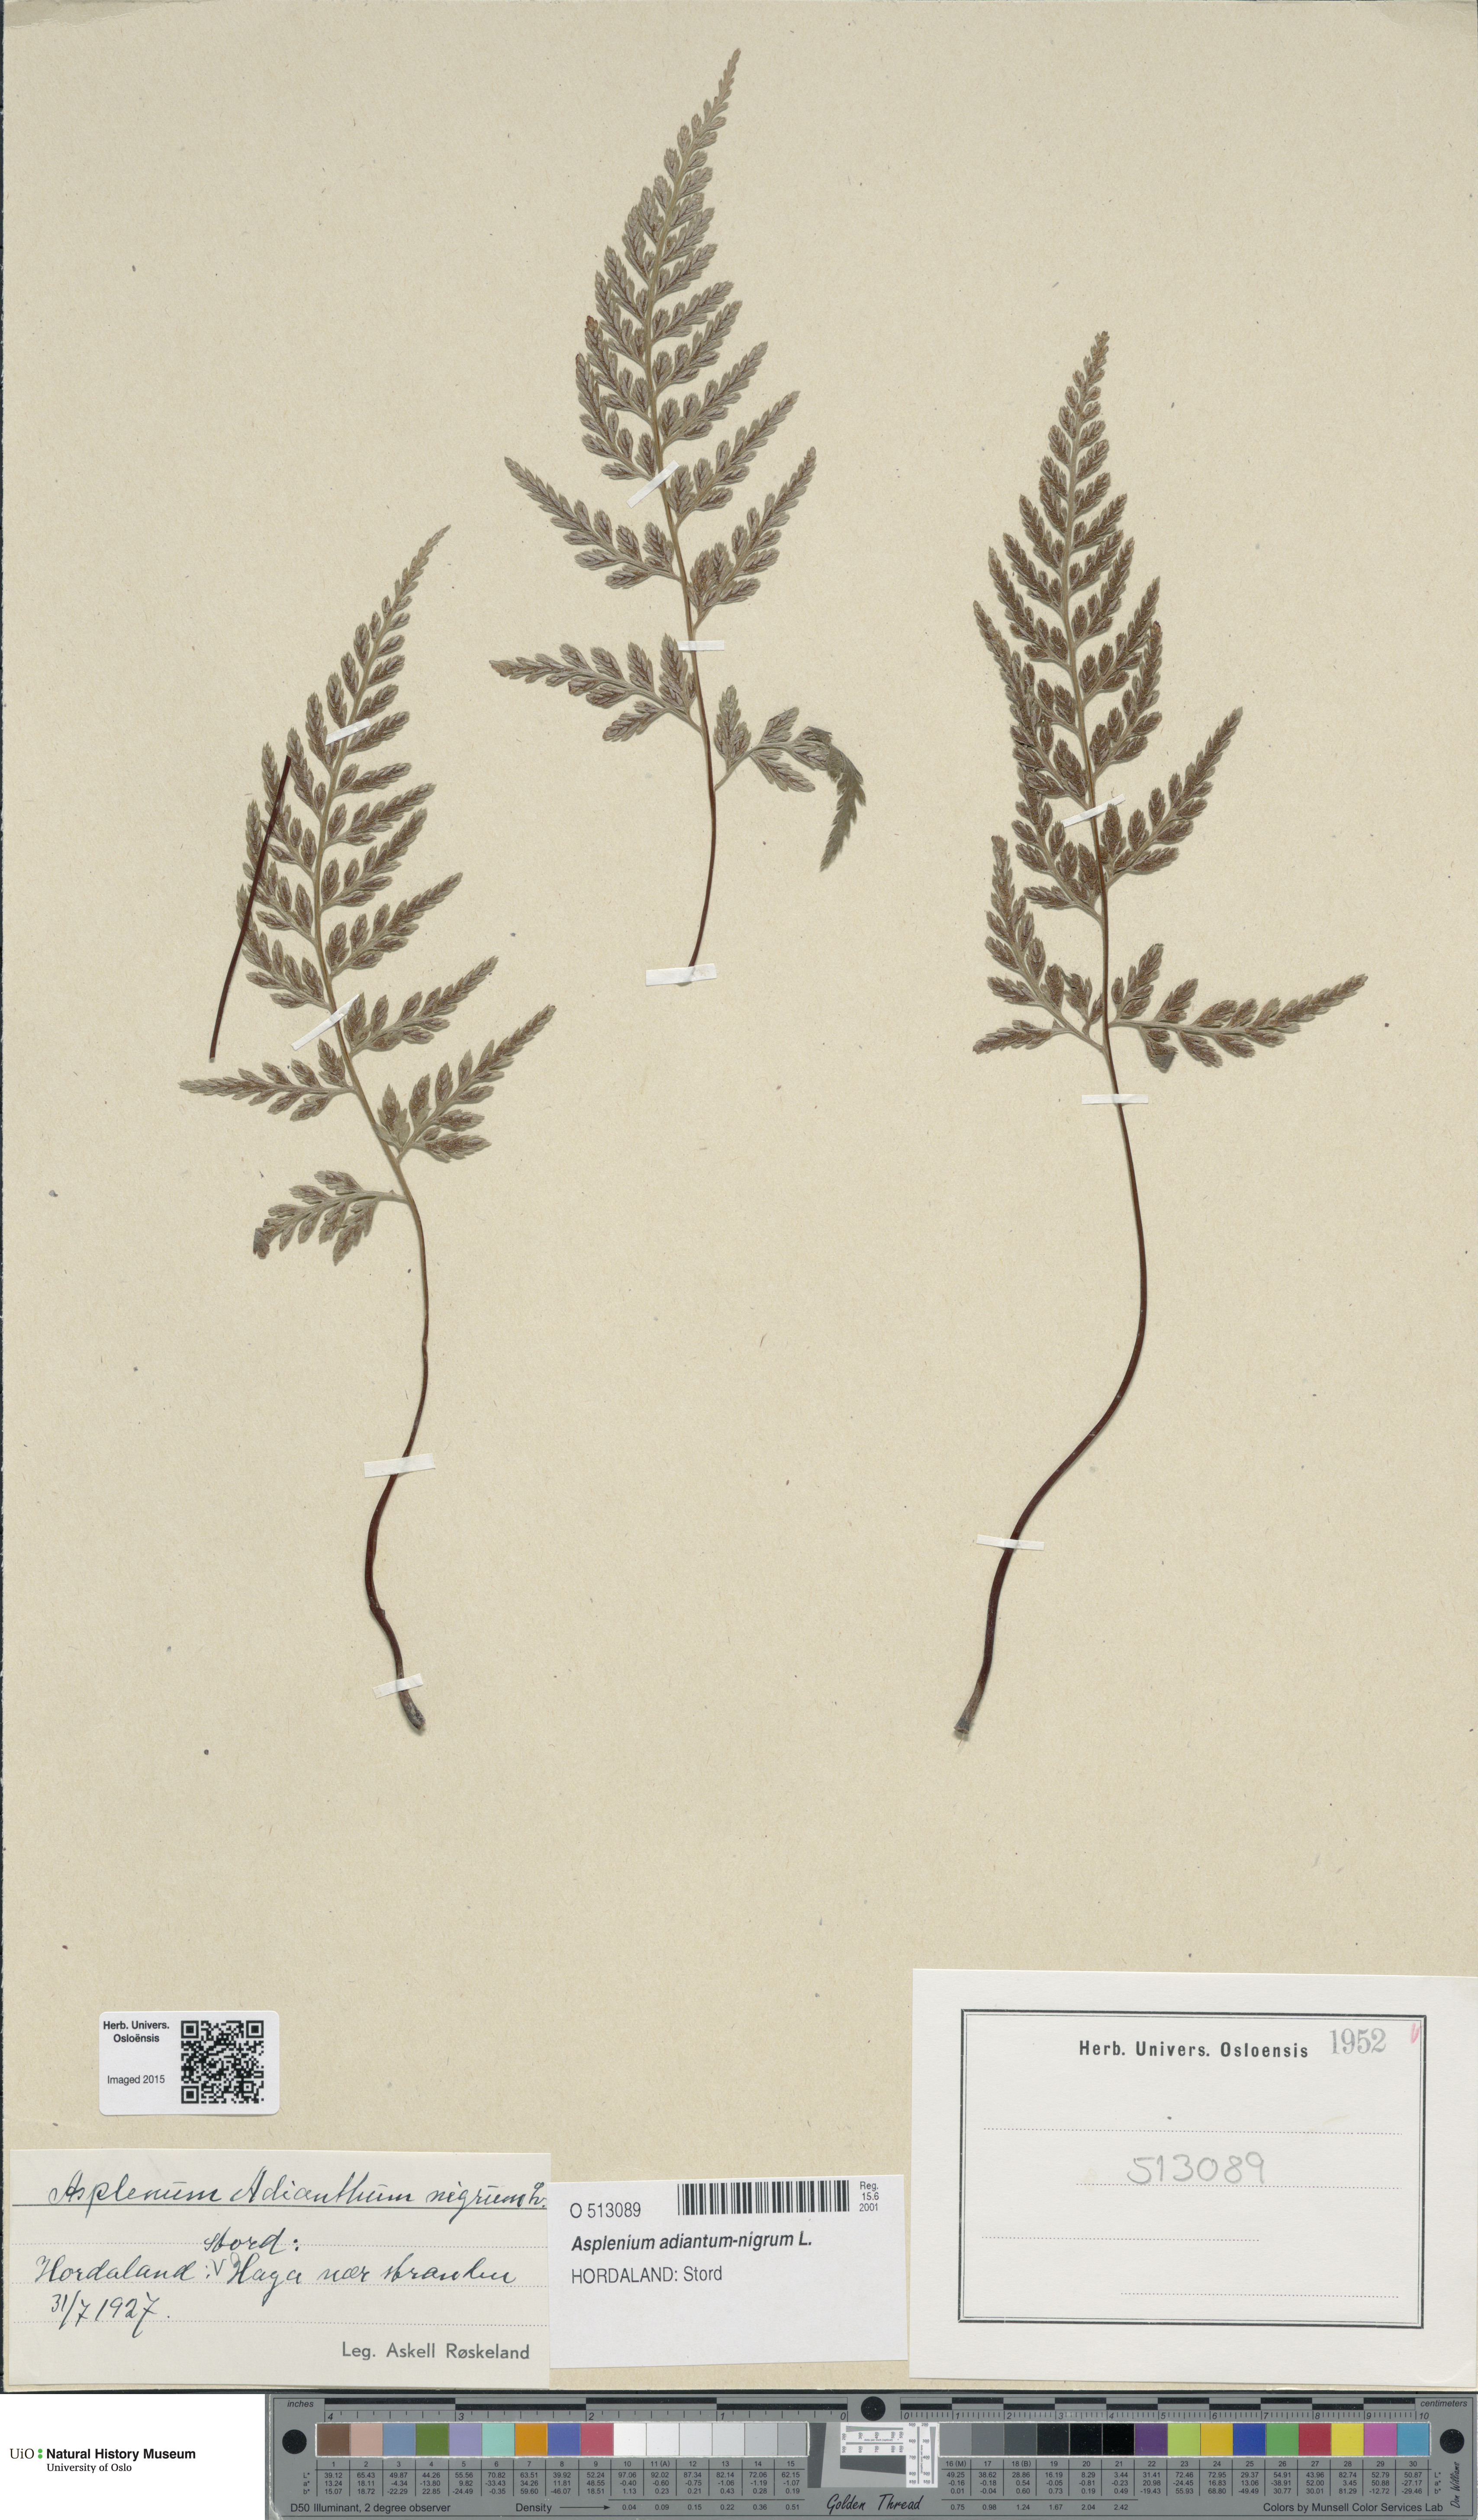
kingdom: Plantae
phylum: Tracheophyta
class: Polypodiopsida
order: Polypodiales
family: Aspleniaceae
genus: Asplenium
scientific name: Asplenium adiantum-nigrum
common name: Black spleenwort
